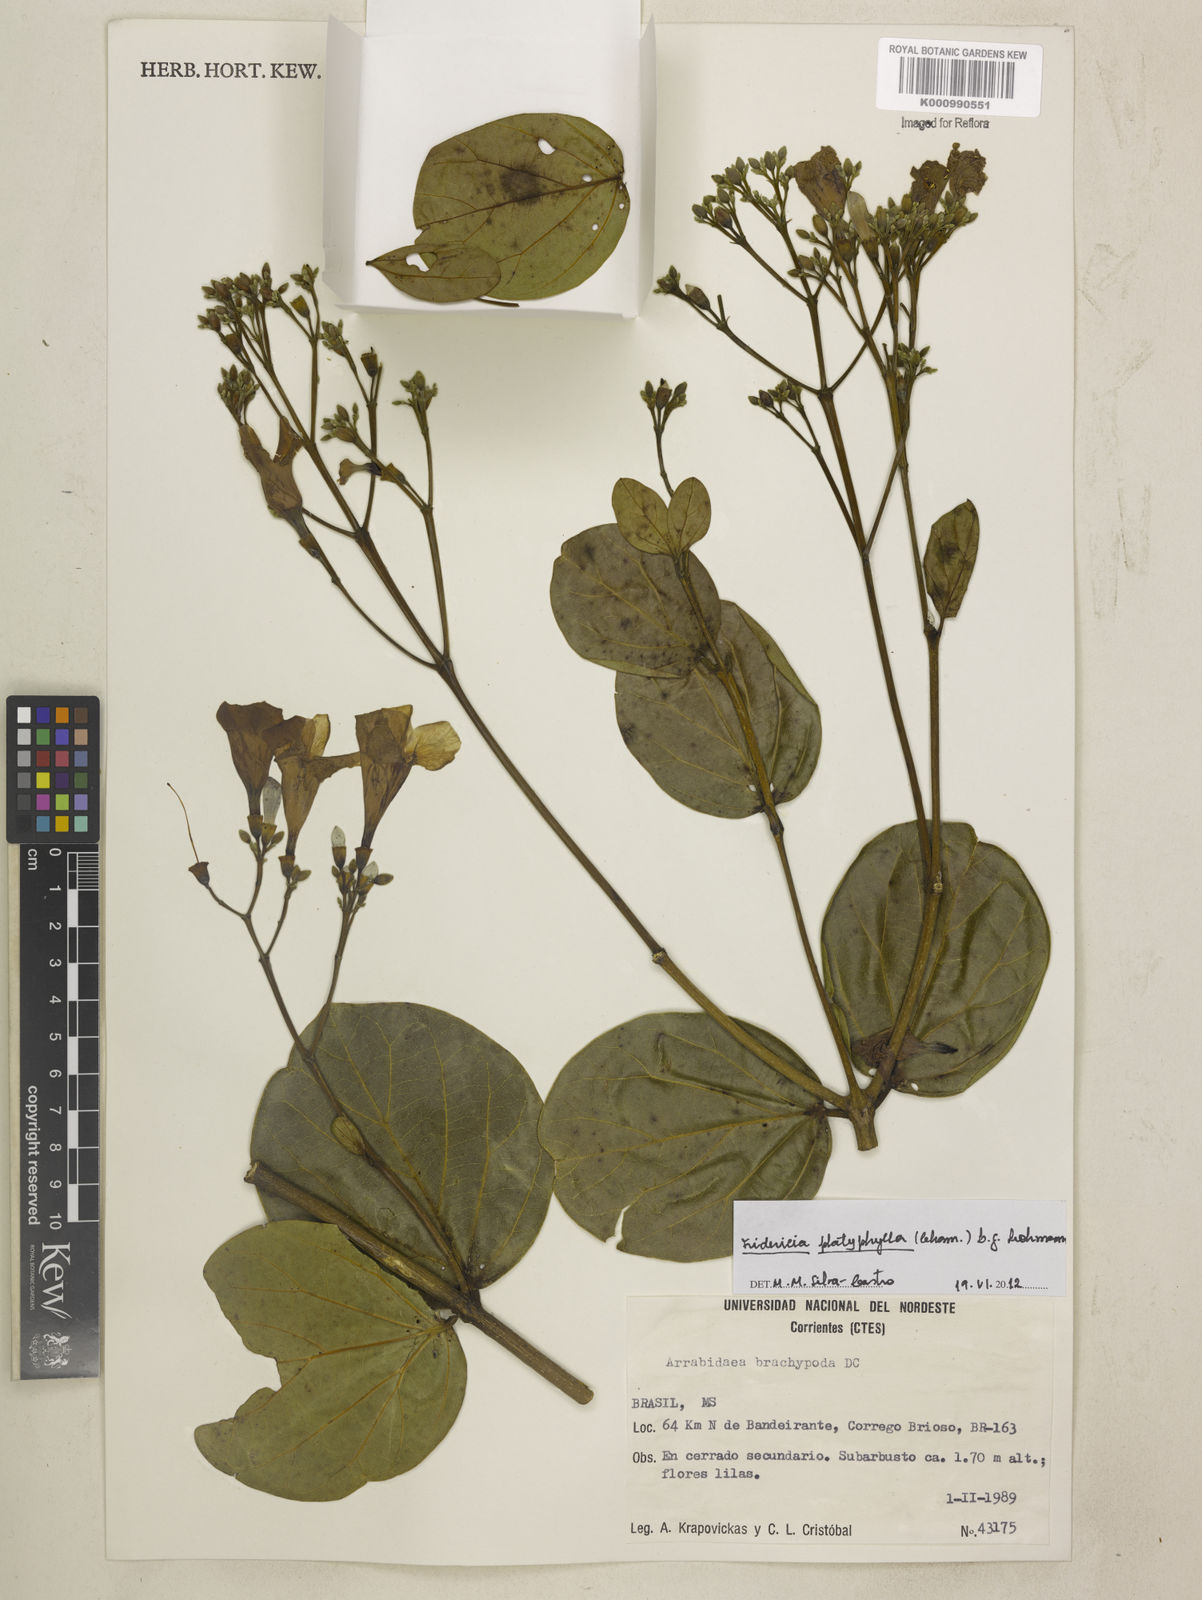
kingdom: Plantae
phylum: Tracheophyta
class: Magnoliopsida
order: Lamiales
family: Bignoniaceae
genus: Fridericia
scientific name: Fridericia platyphylla
